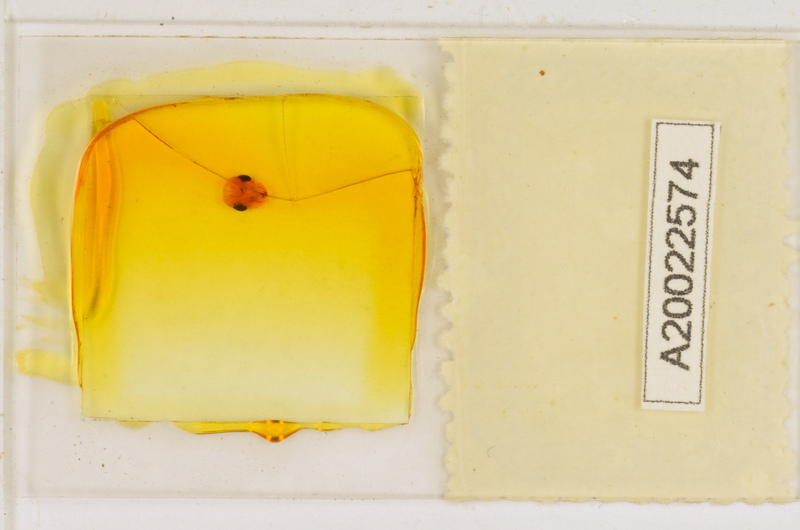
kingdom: Animalia
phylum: Arthropoda
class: Chilopoda
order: Scutigeromorpha
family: Scutigeridae
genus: Scutigera
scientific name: Scutigera coleoptrata
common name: House centipede
